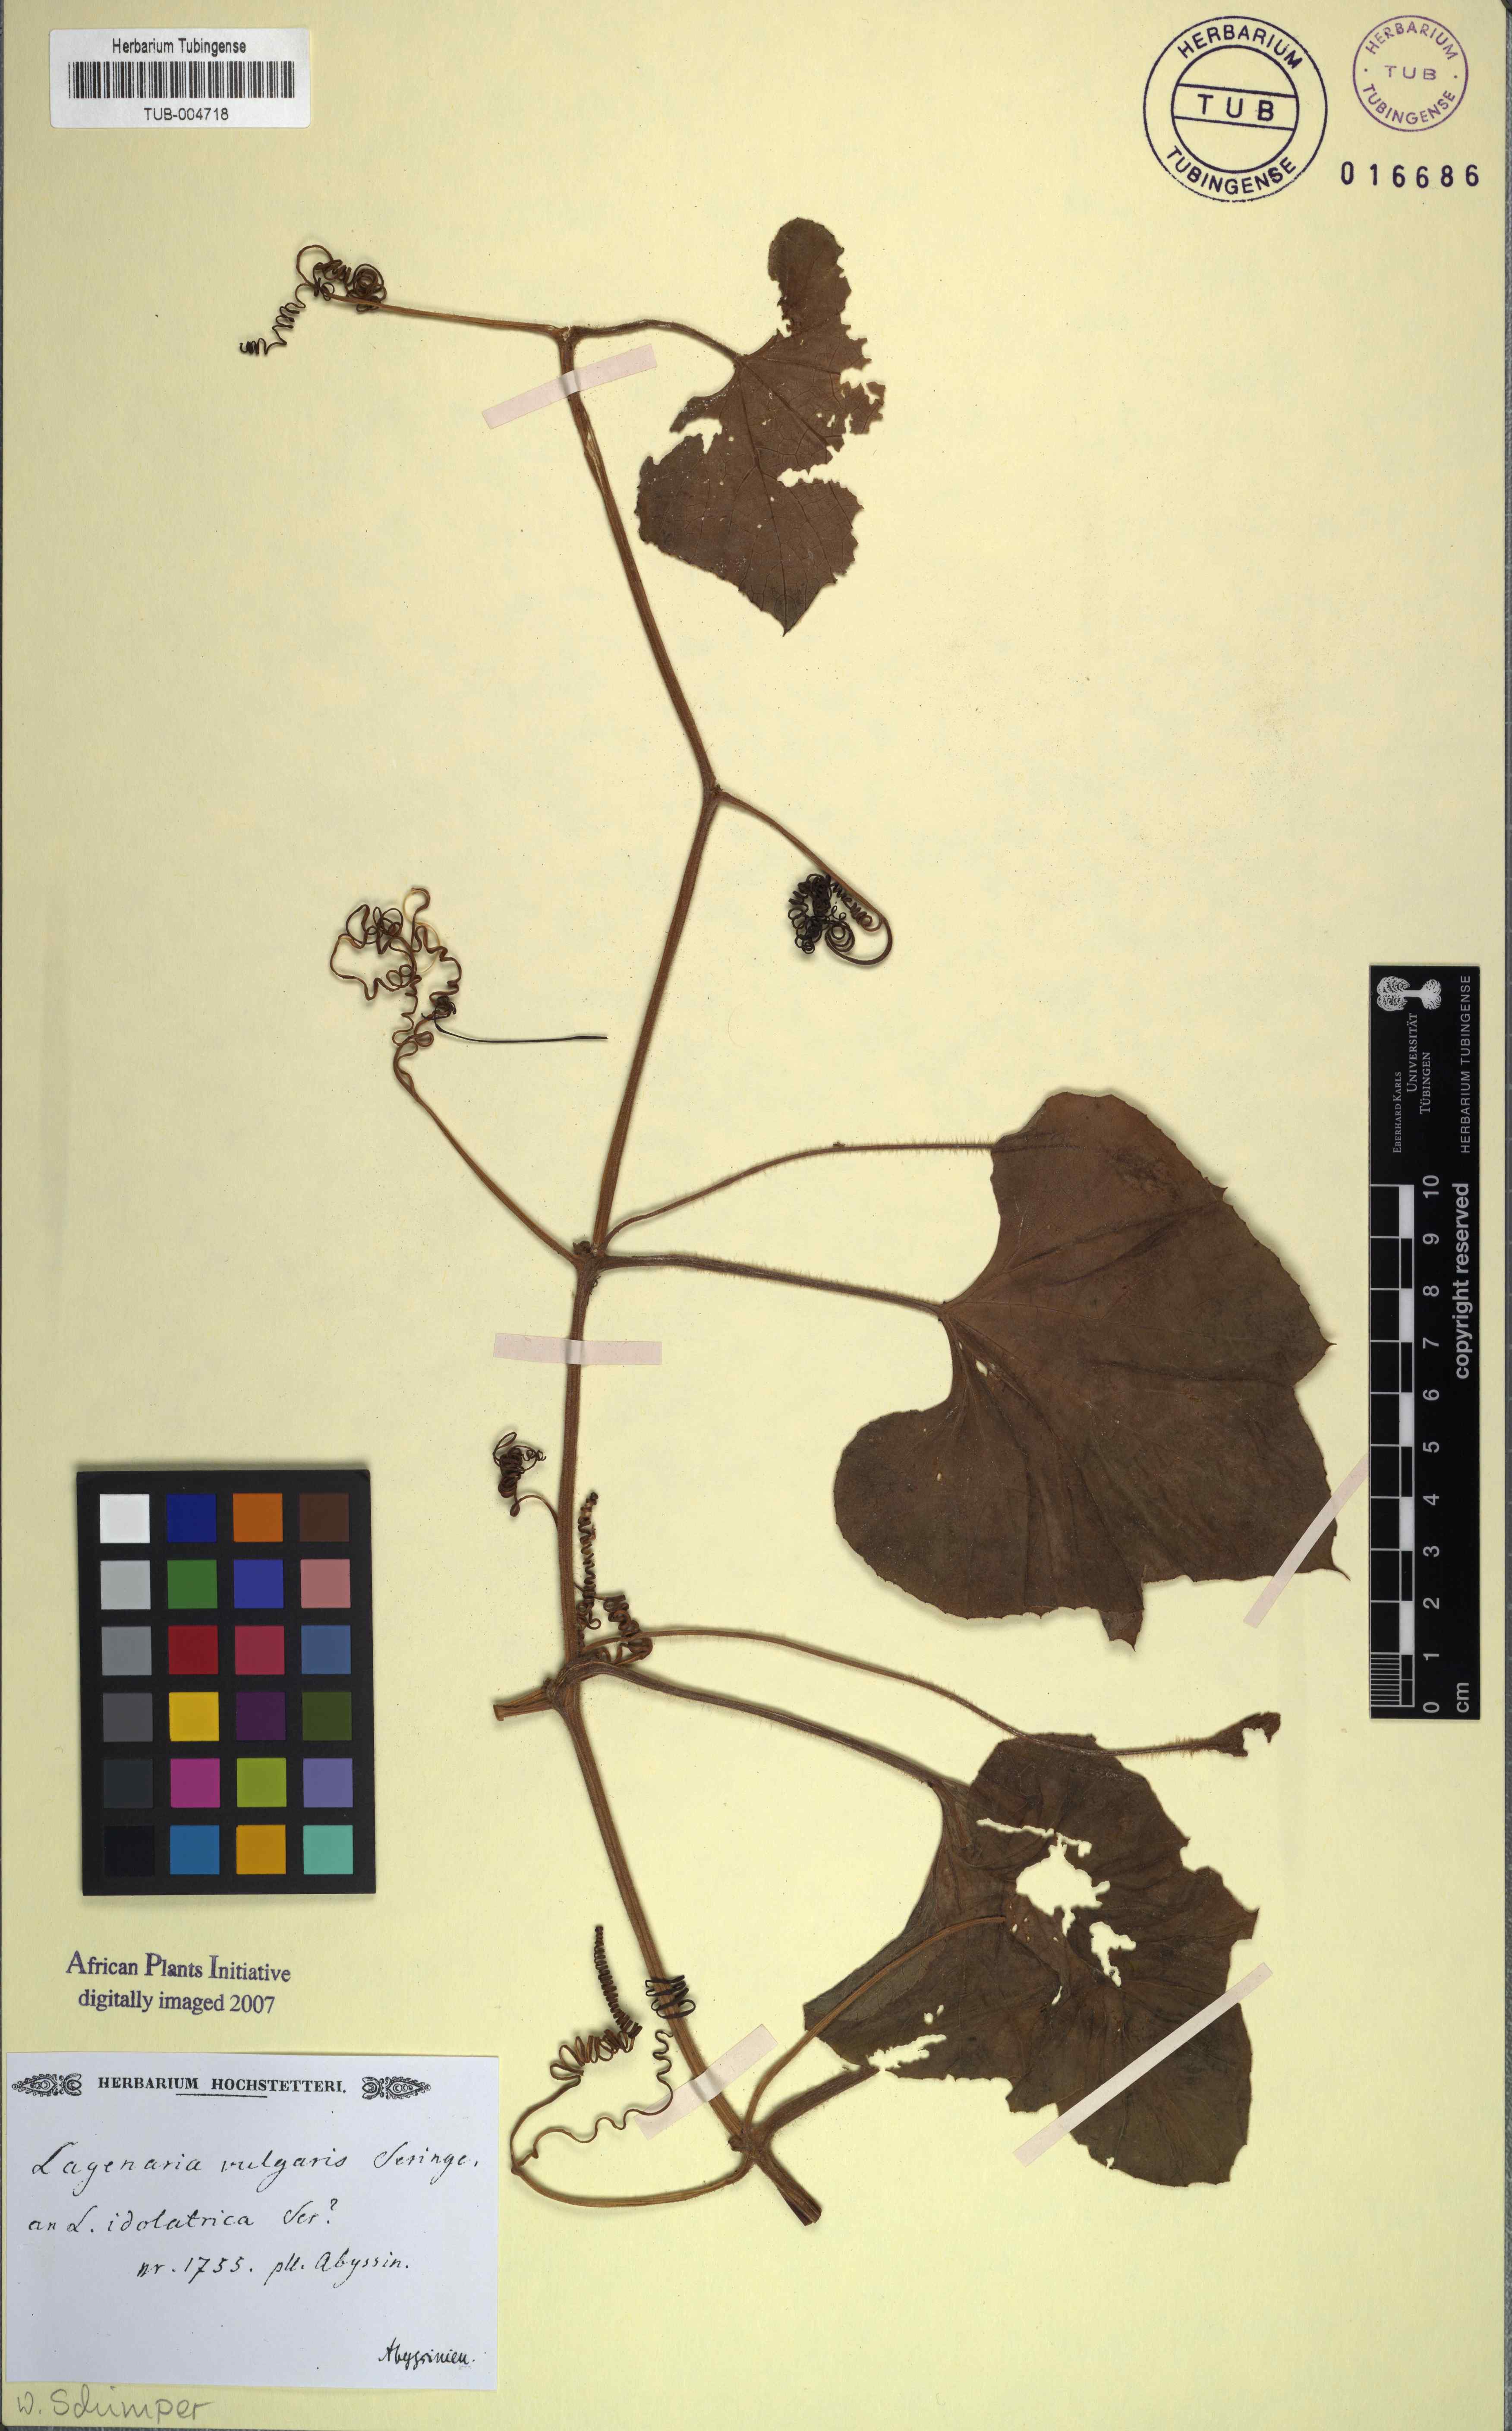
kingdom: Plantae
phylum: Tracheophyta
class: Magnoliopsida
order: Cucurbitales
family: Cucurbitaceae
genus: Lagenaria
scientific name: Lagenaria siceraria
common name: Bottle gourd
